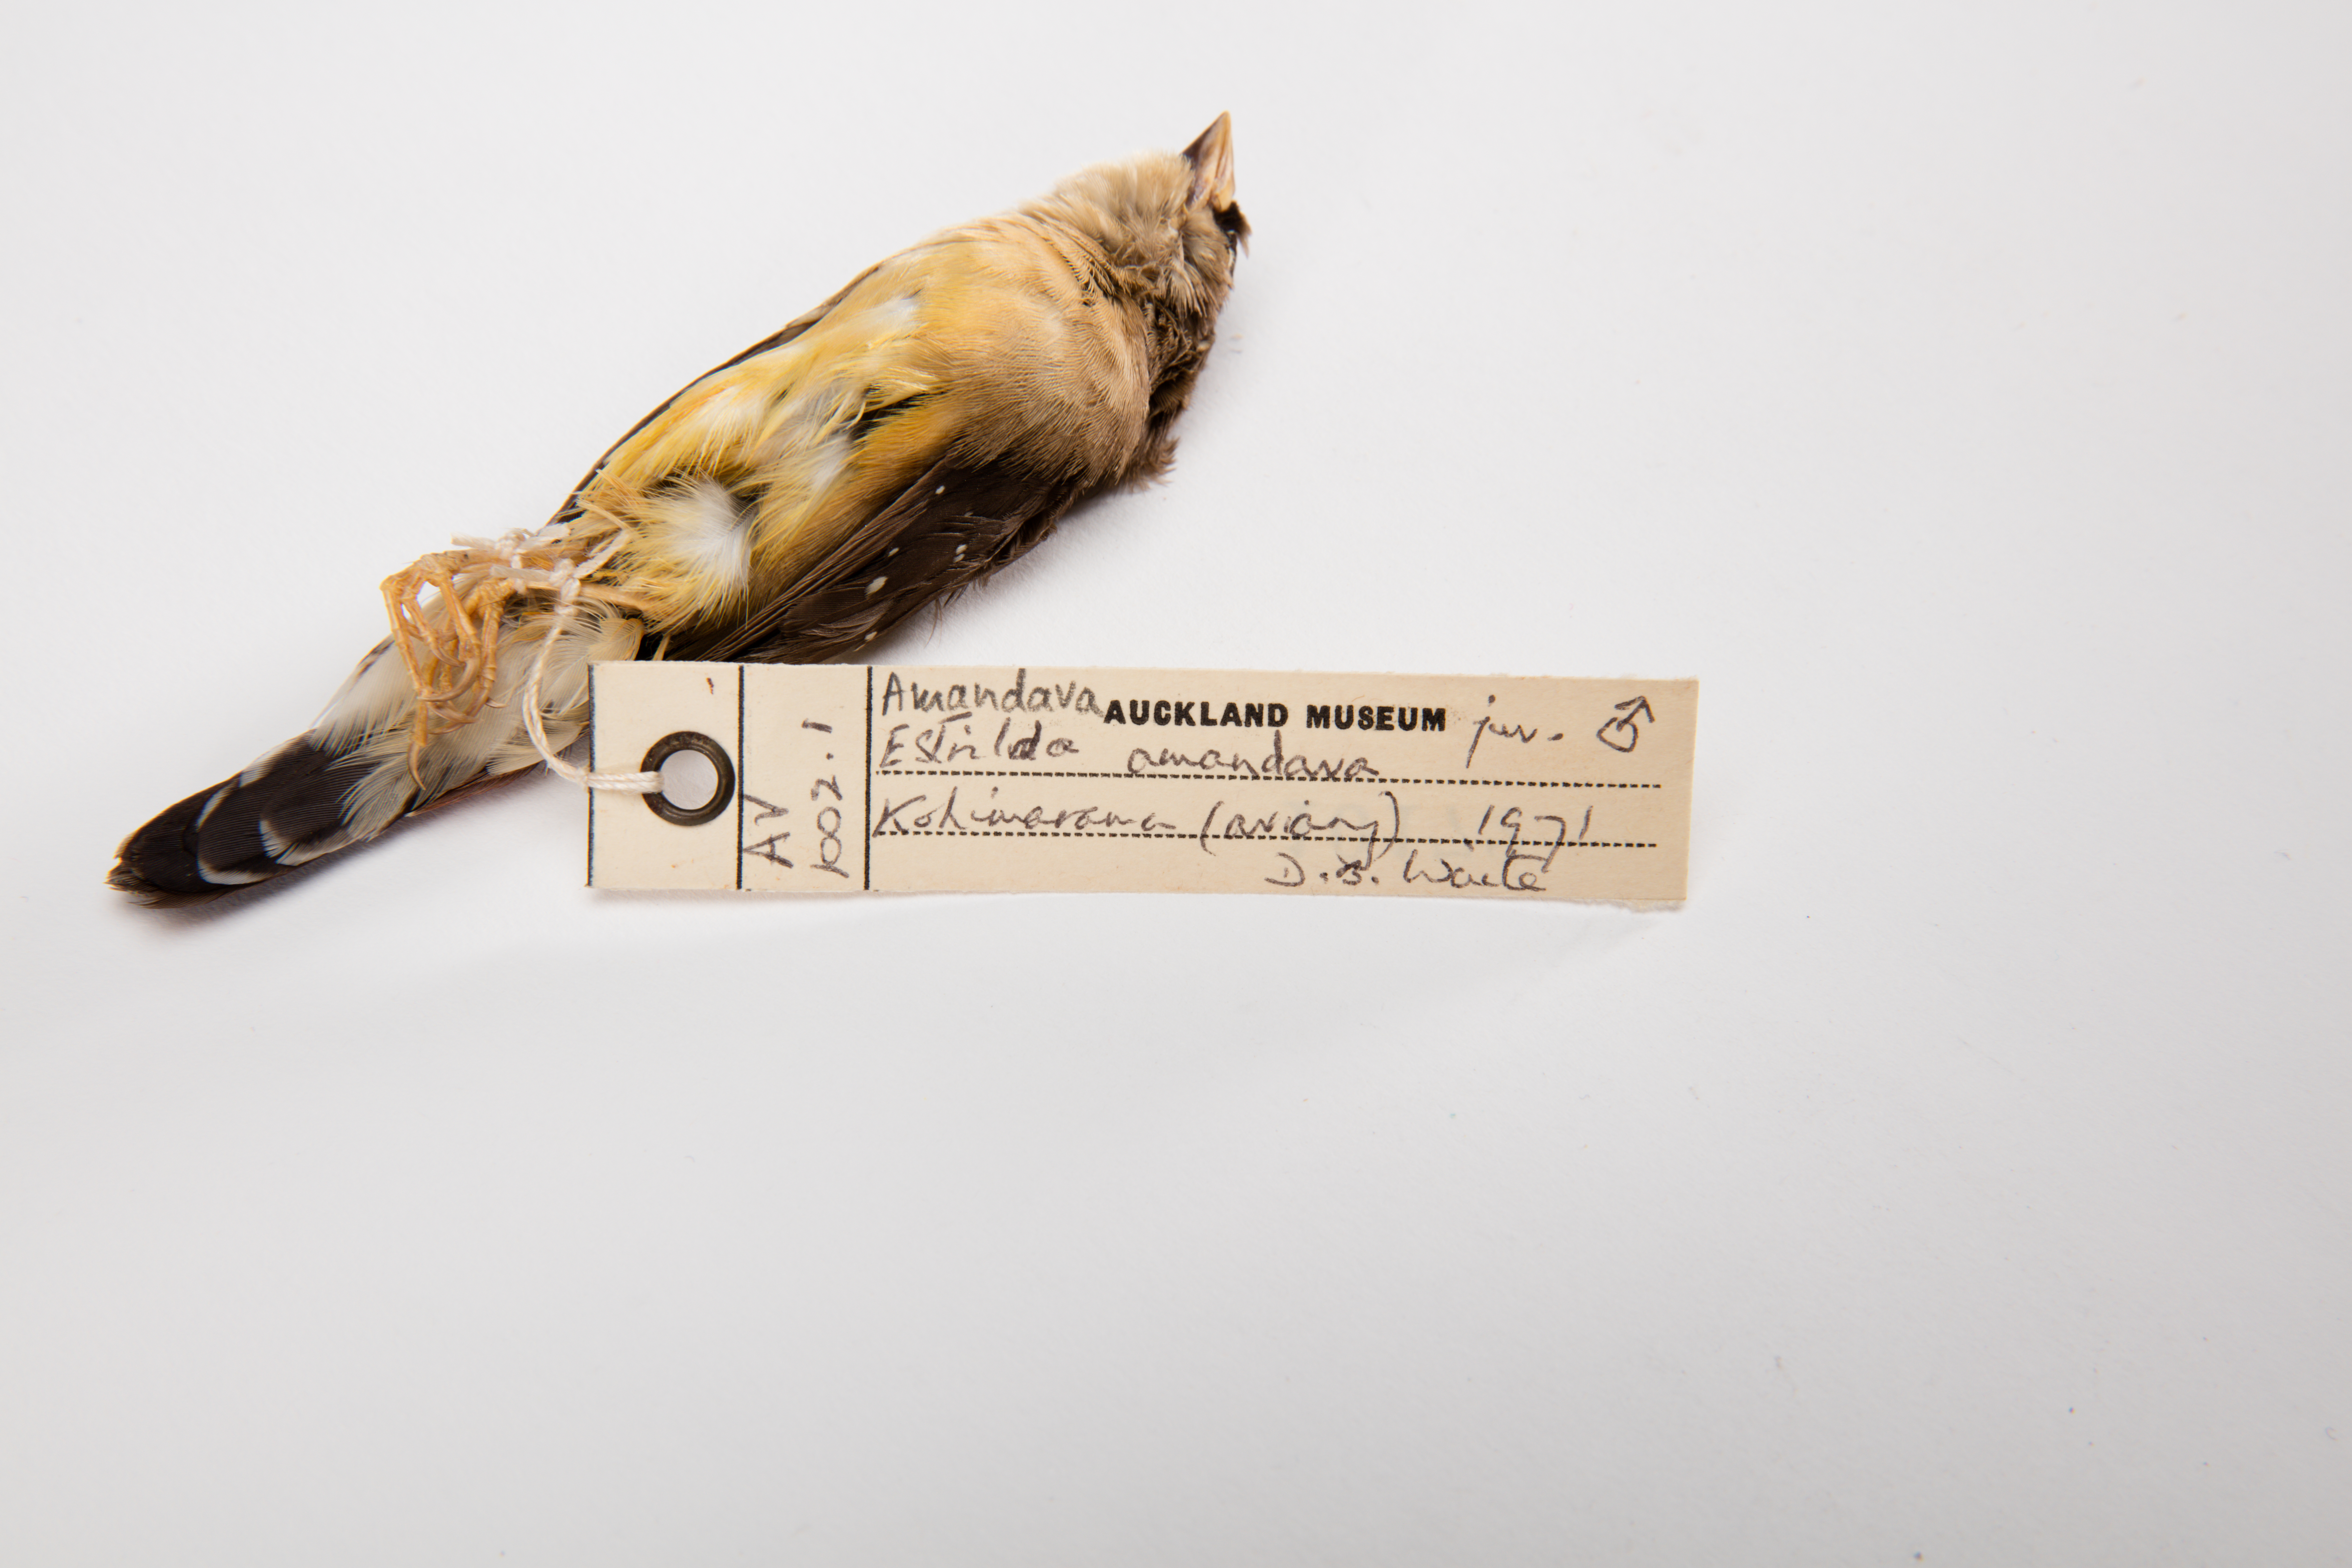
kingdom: Animalia
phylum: Chordata
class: Aves
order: Passeriformes
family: Estrildidae
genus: Amandava
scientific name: Amandava amandava
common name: Red avadavat
